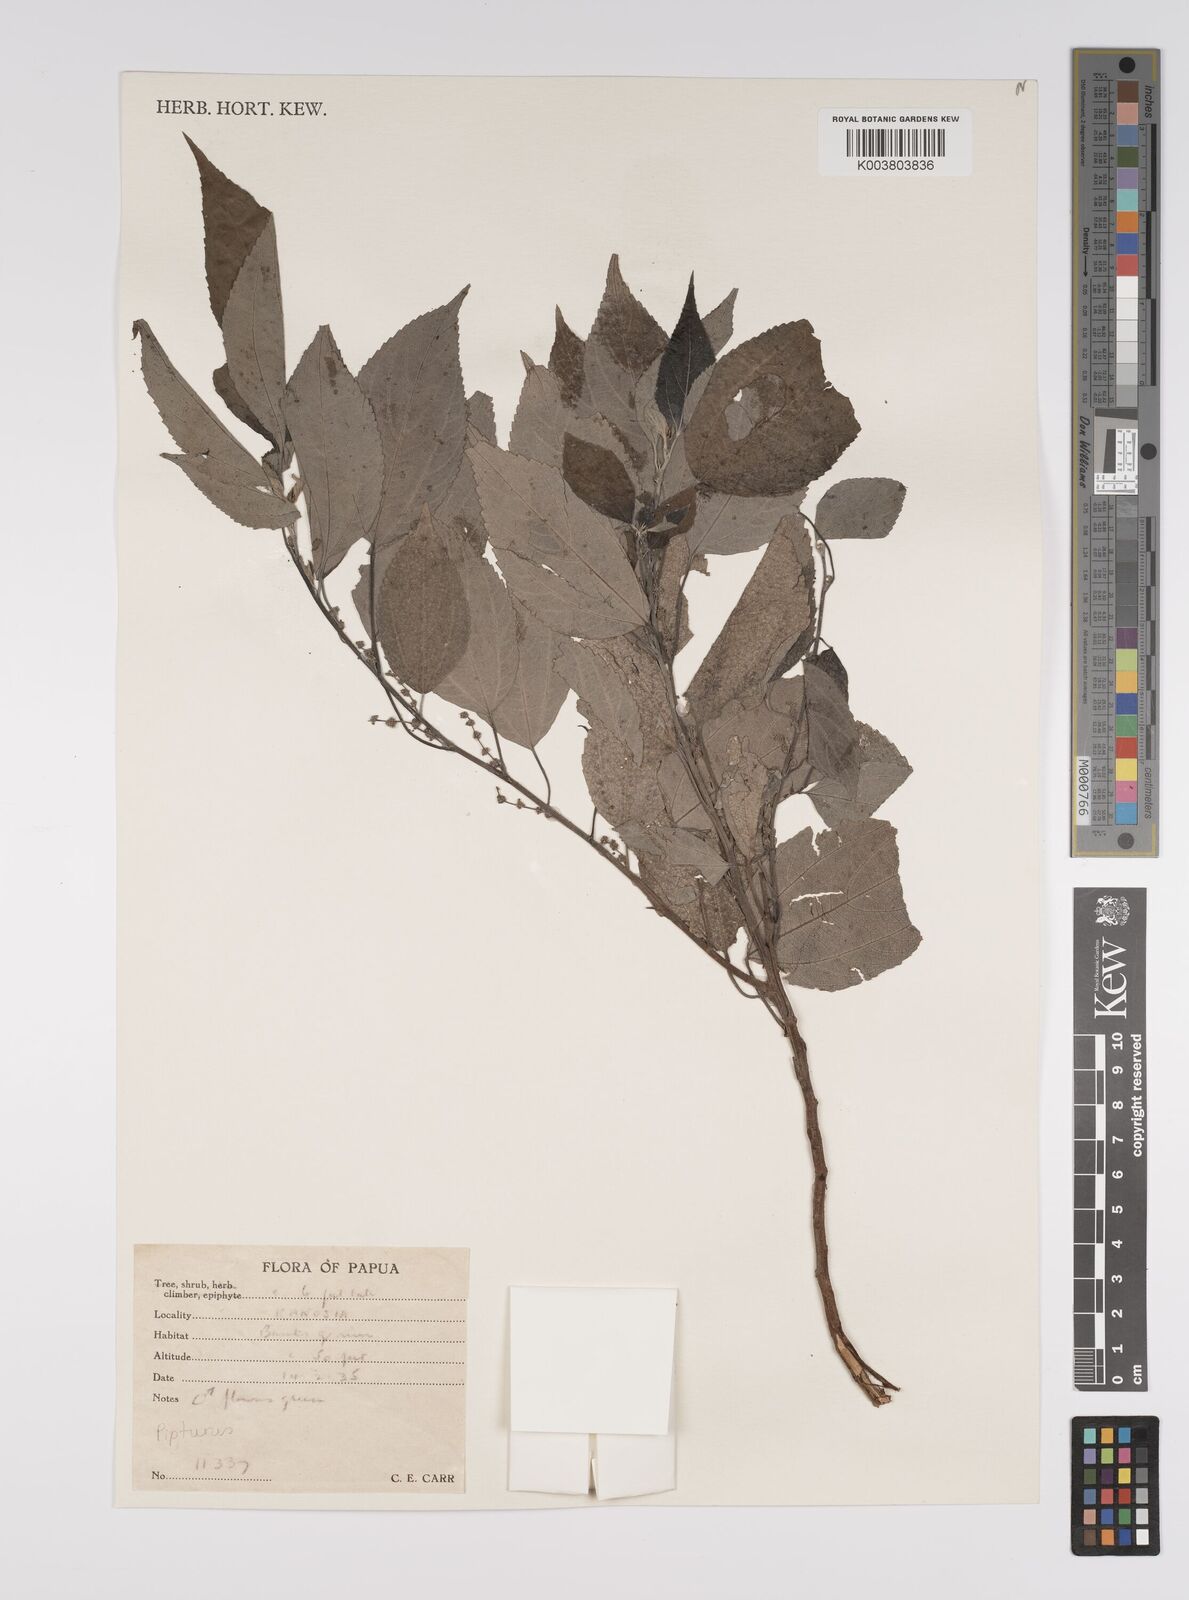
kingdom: Plantae
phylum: Tracheophyta
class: Magnoliopsida
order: Rosales
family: Urticaceae
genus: Pipturus
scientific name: Pipturus argenteus
